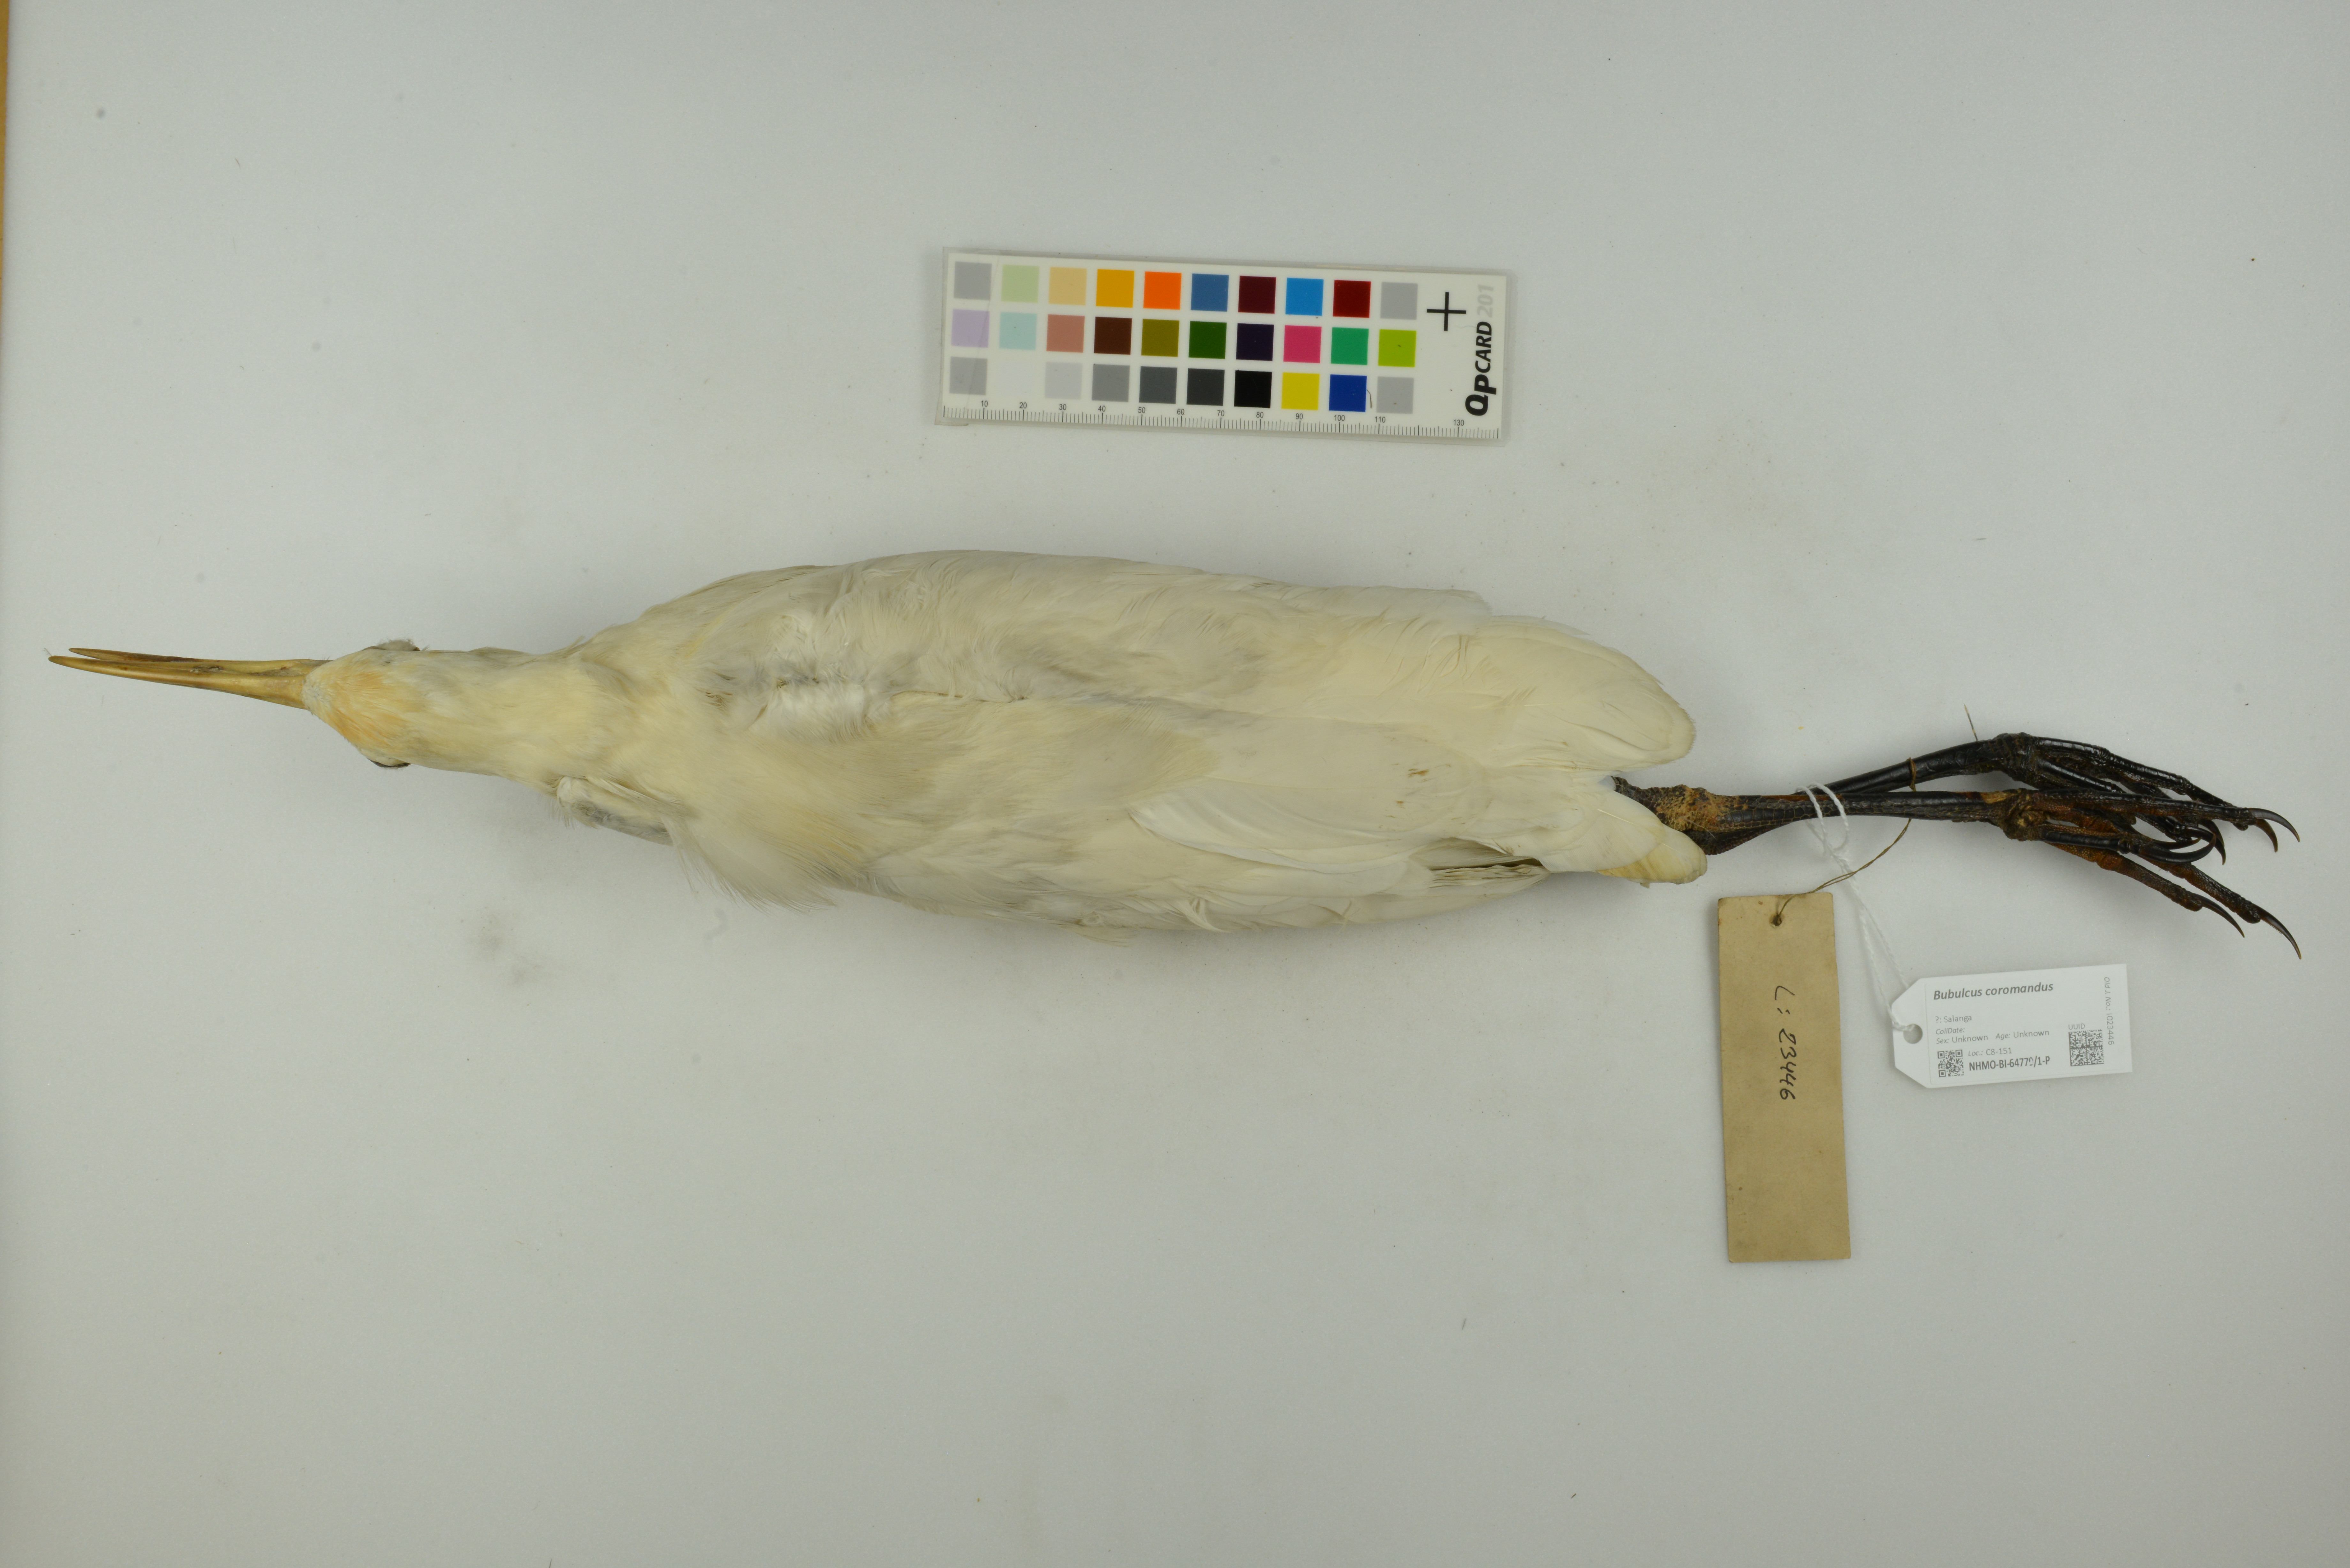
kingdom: Animalia
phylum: Chordata
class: Aves
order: Pelecaniformes
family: Ardeidae
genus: Bubulcus
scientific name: Bubulcus coromandus
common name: Eastern cattle egret
